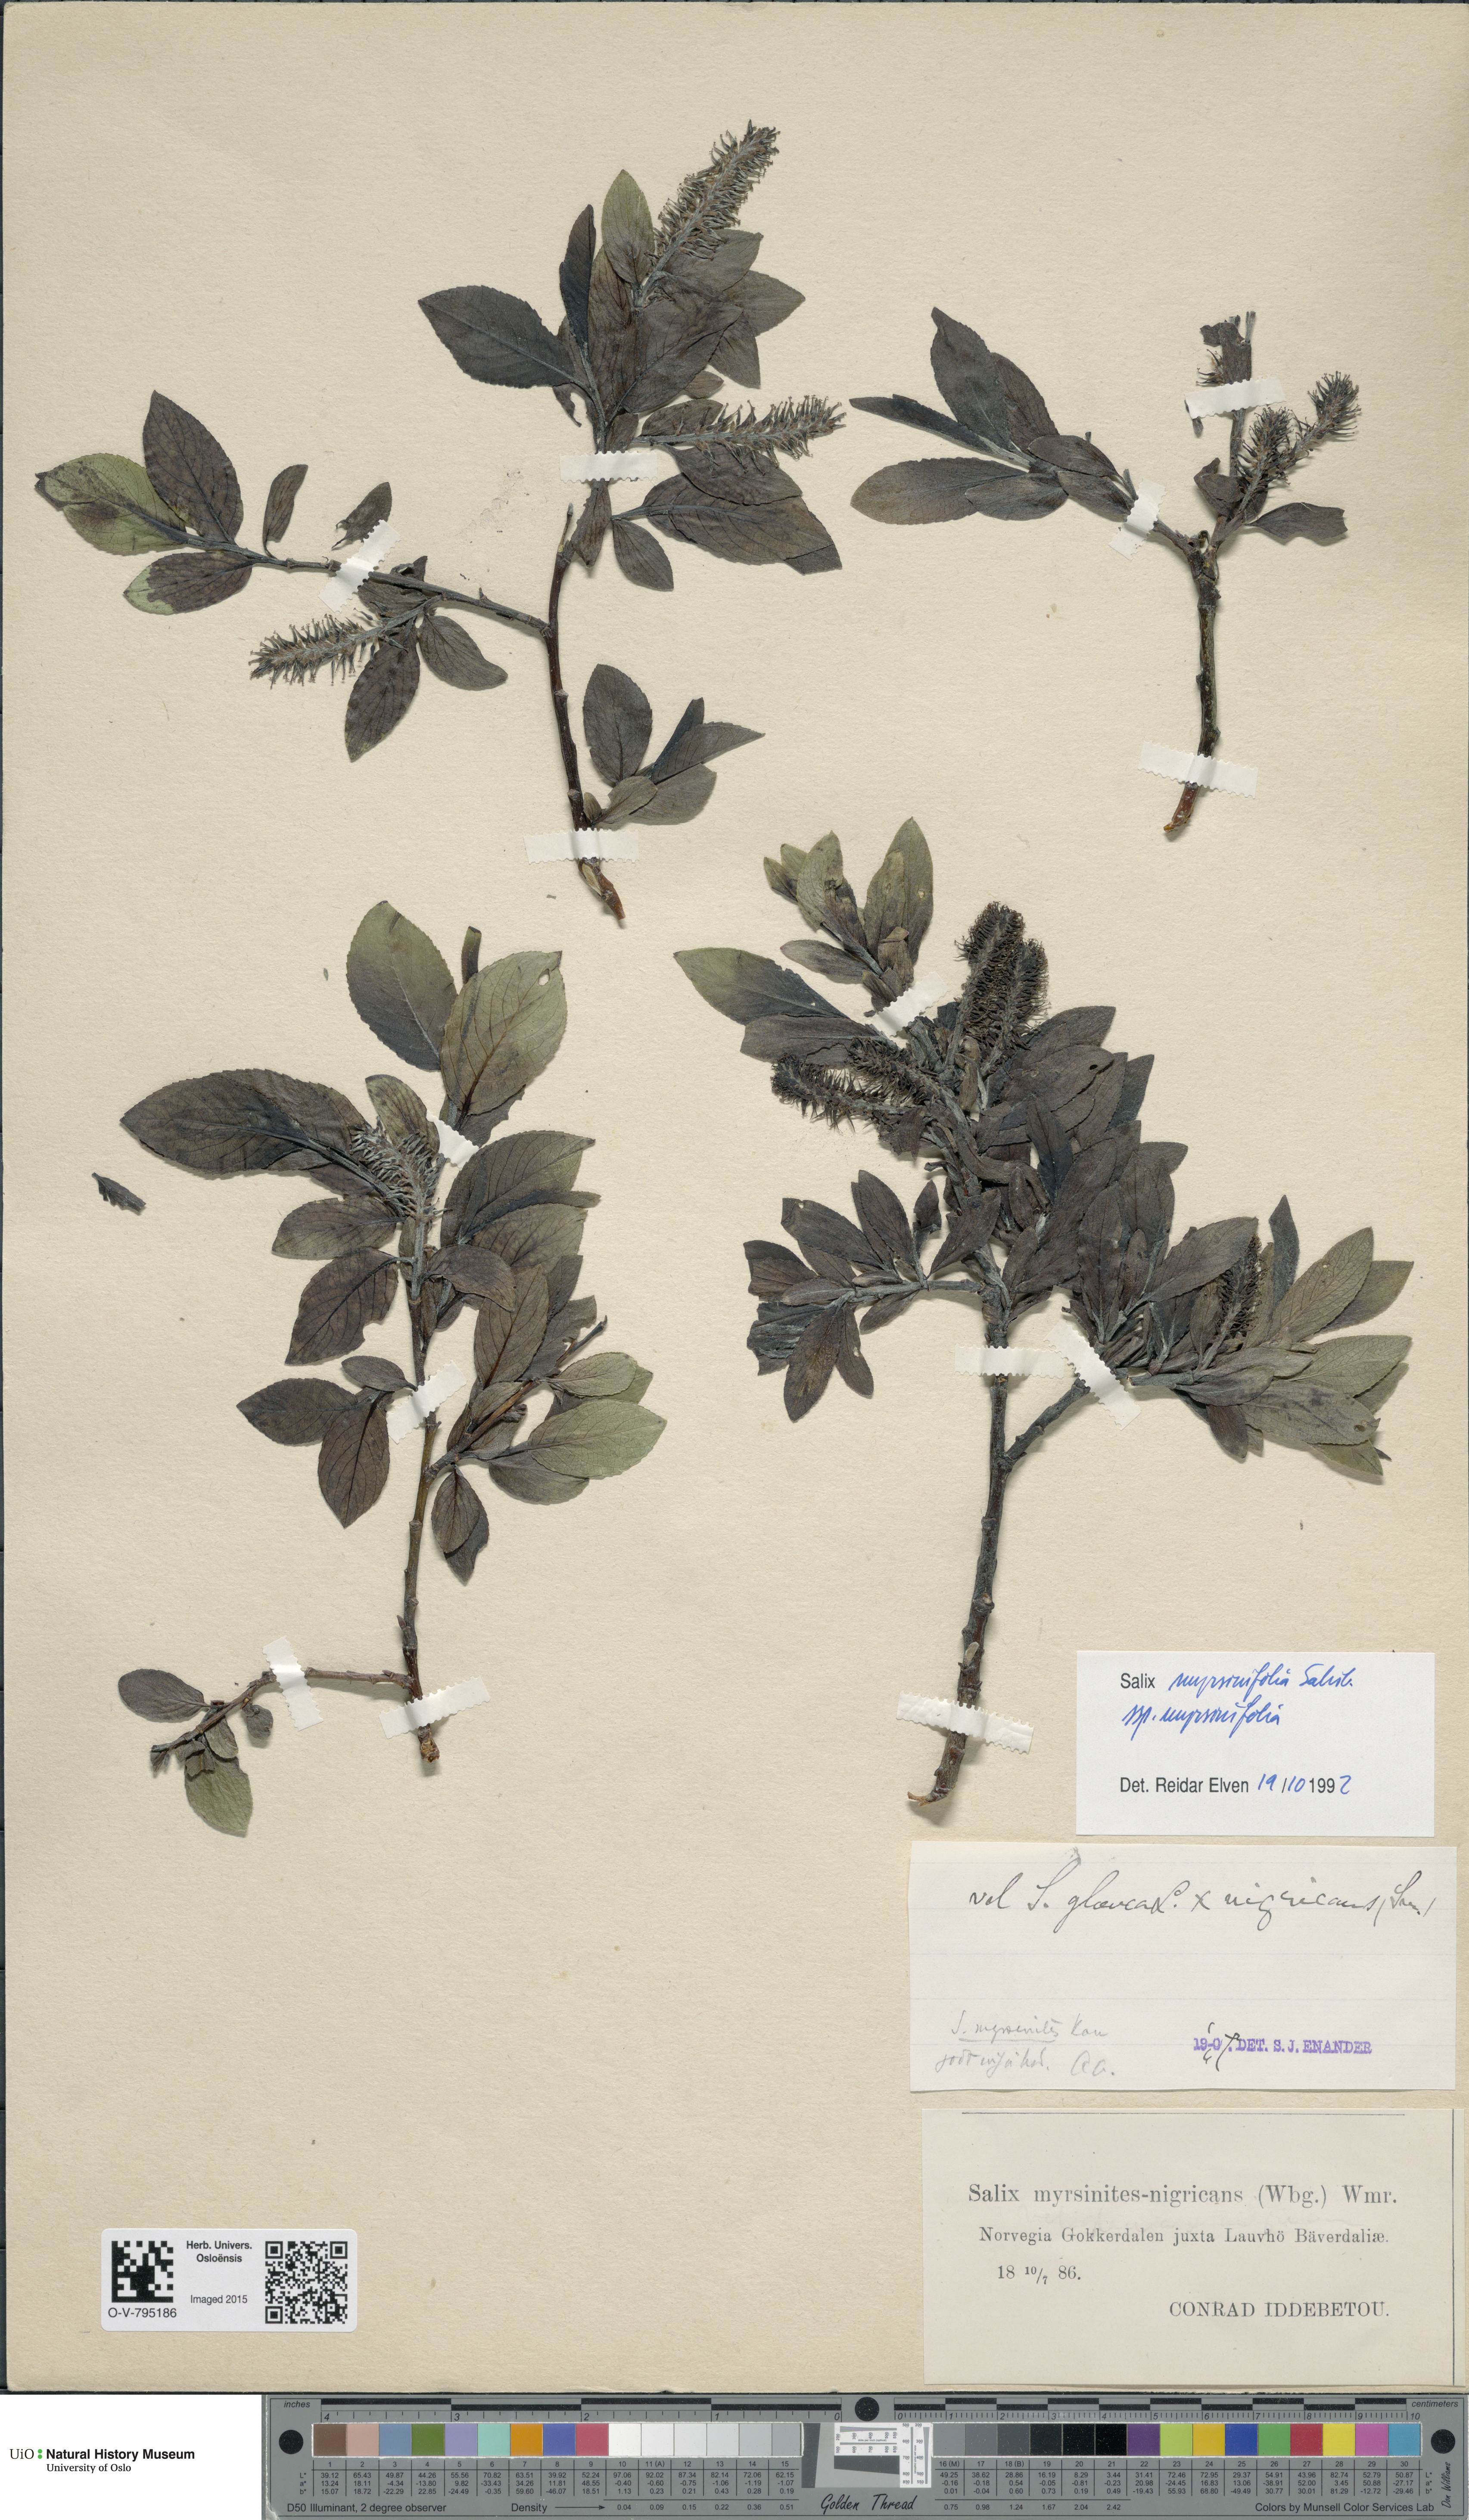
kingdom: Plantae
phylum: Tracheophyta
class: Magnoliopsida
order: Malpighiales
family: Salicaceae
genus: Salix
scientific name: Salix myrsinifolia
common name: Dark-leaved willow
